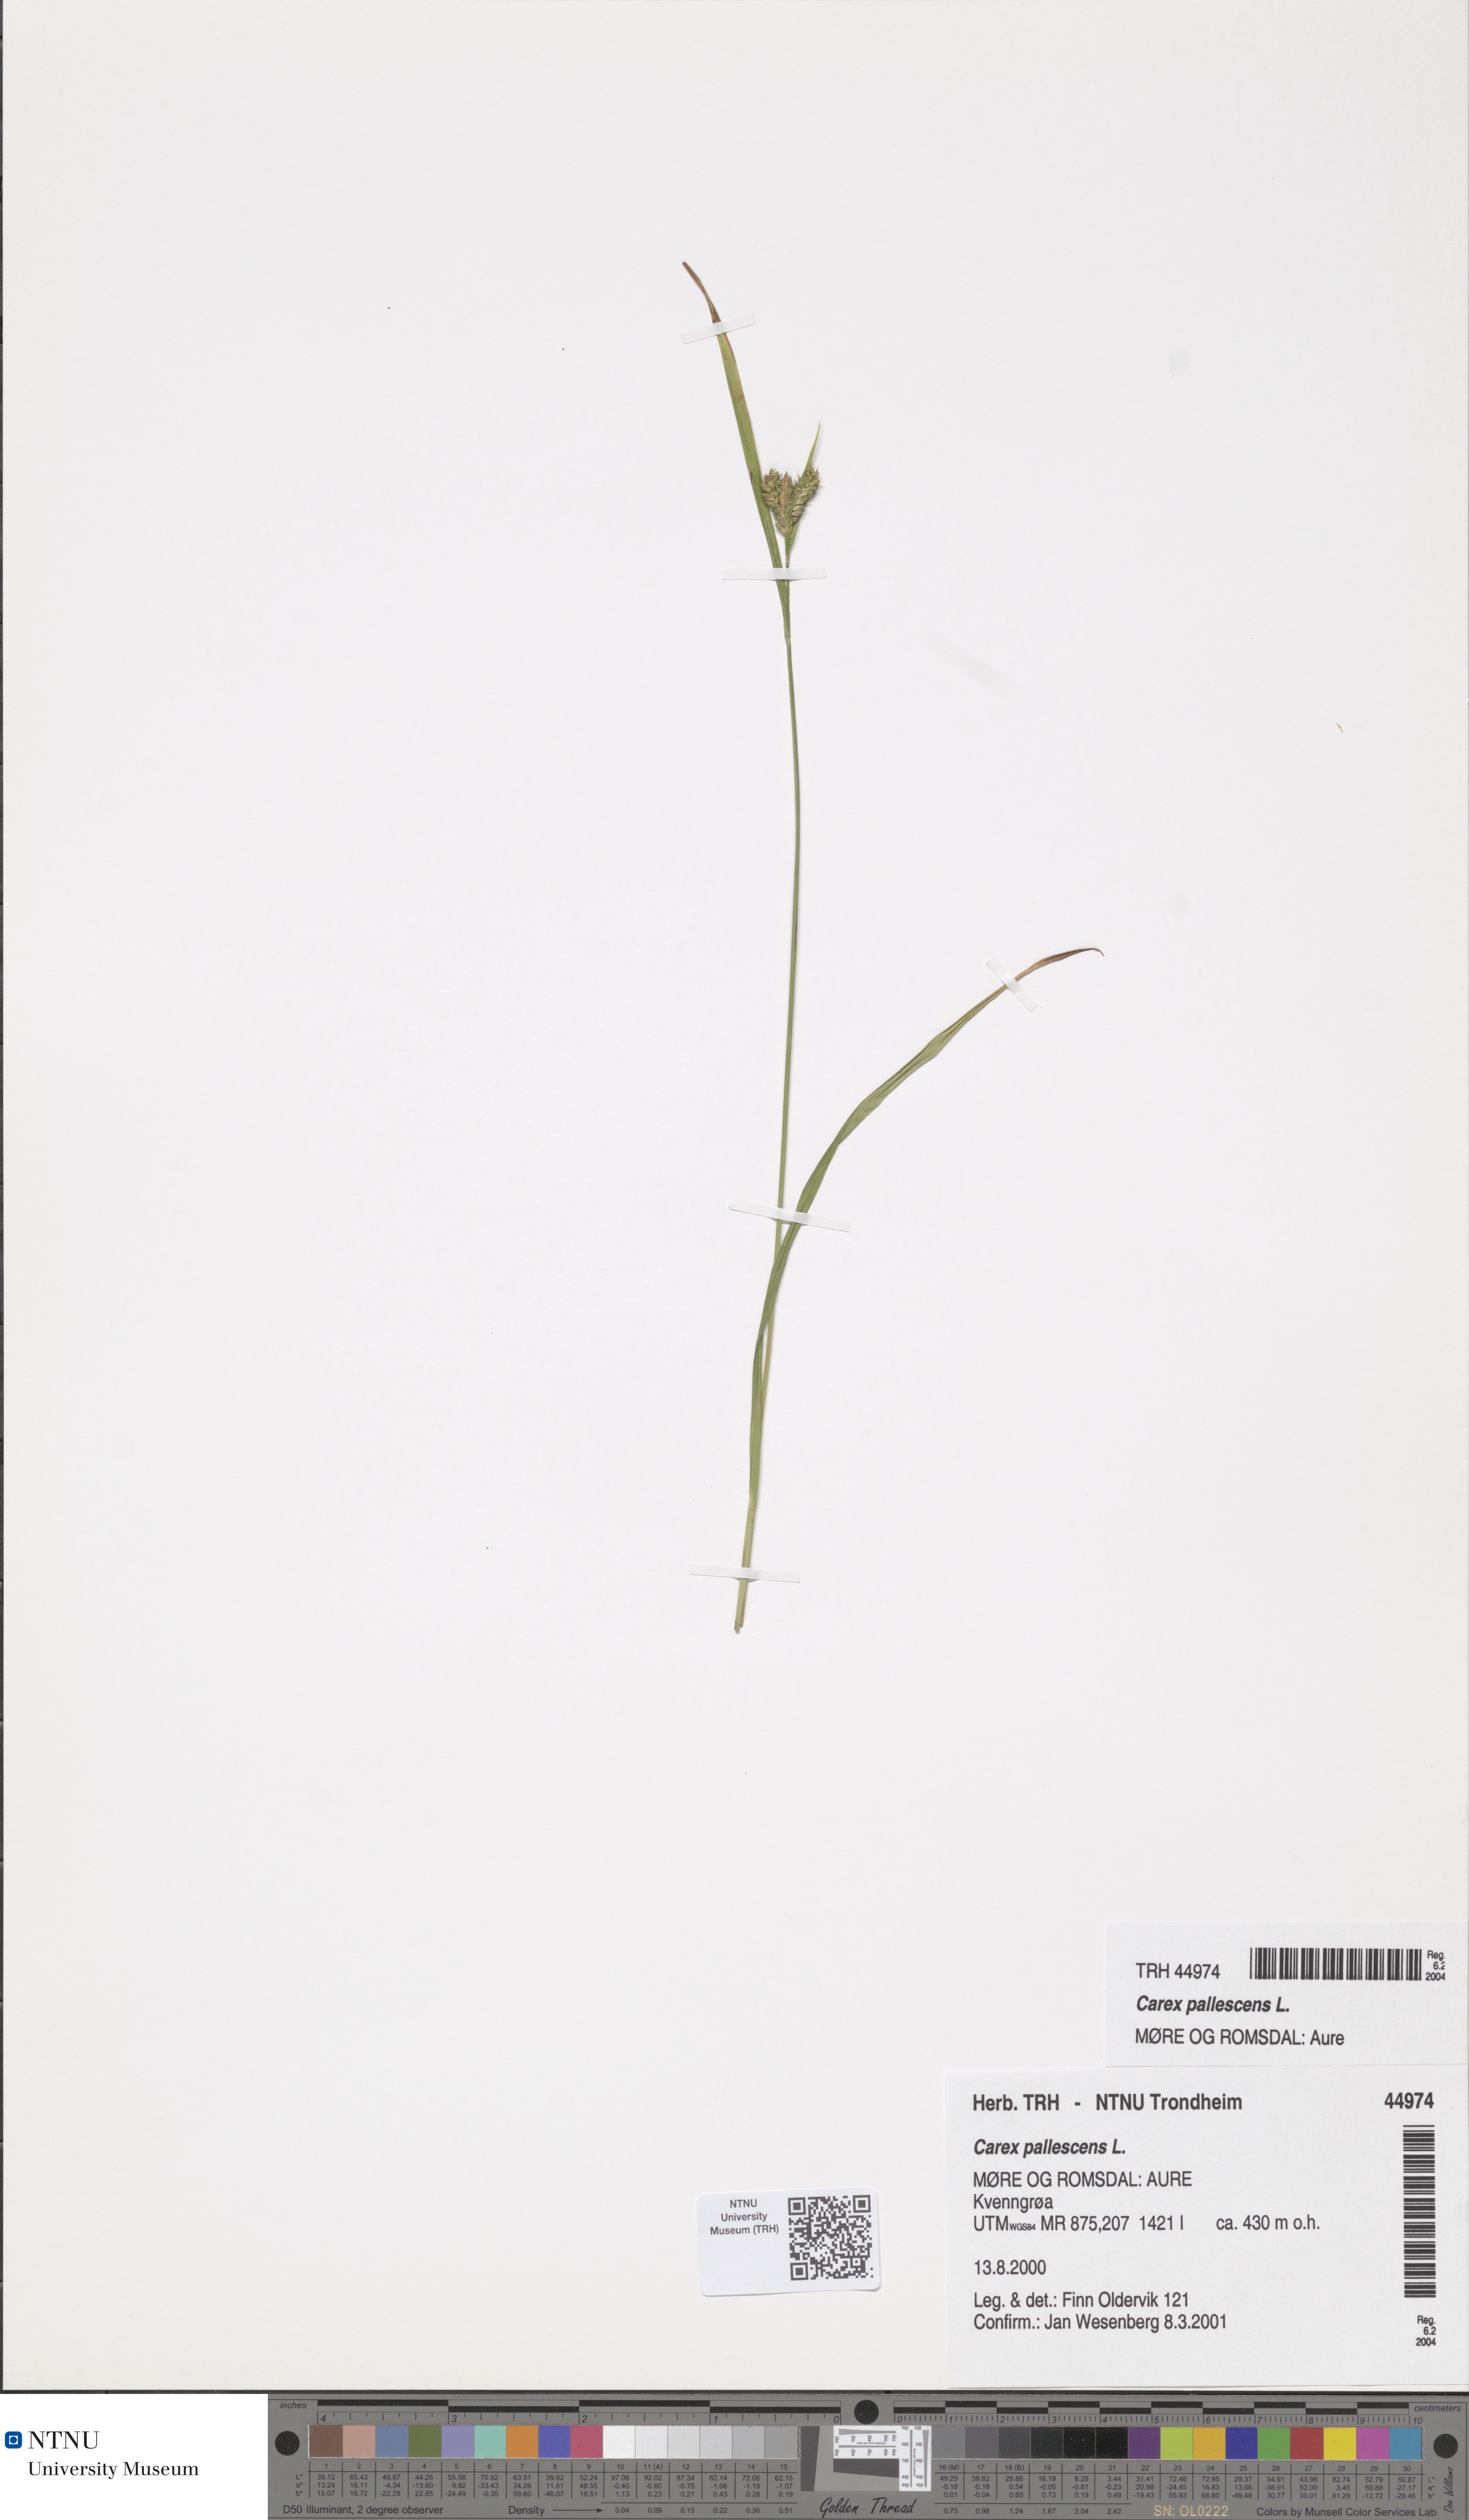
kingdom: Plantae
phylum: Tracheophyta
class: Liliopsida
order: Poales
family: Cyperaceae
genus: Carex
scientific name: Carex pallescens
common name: Pale sedge
